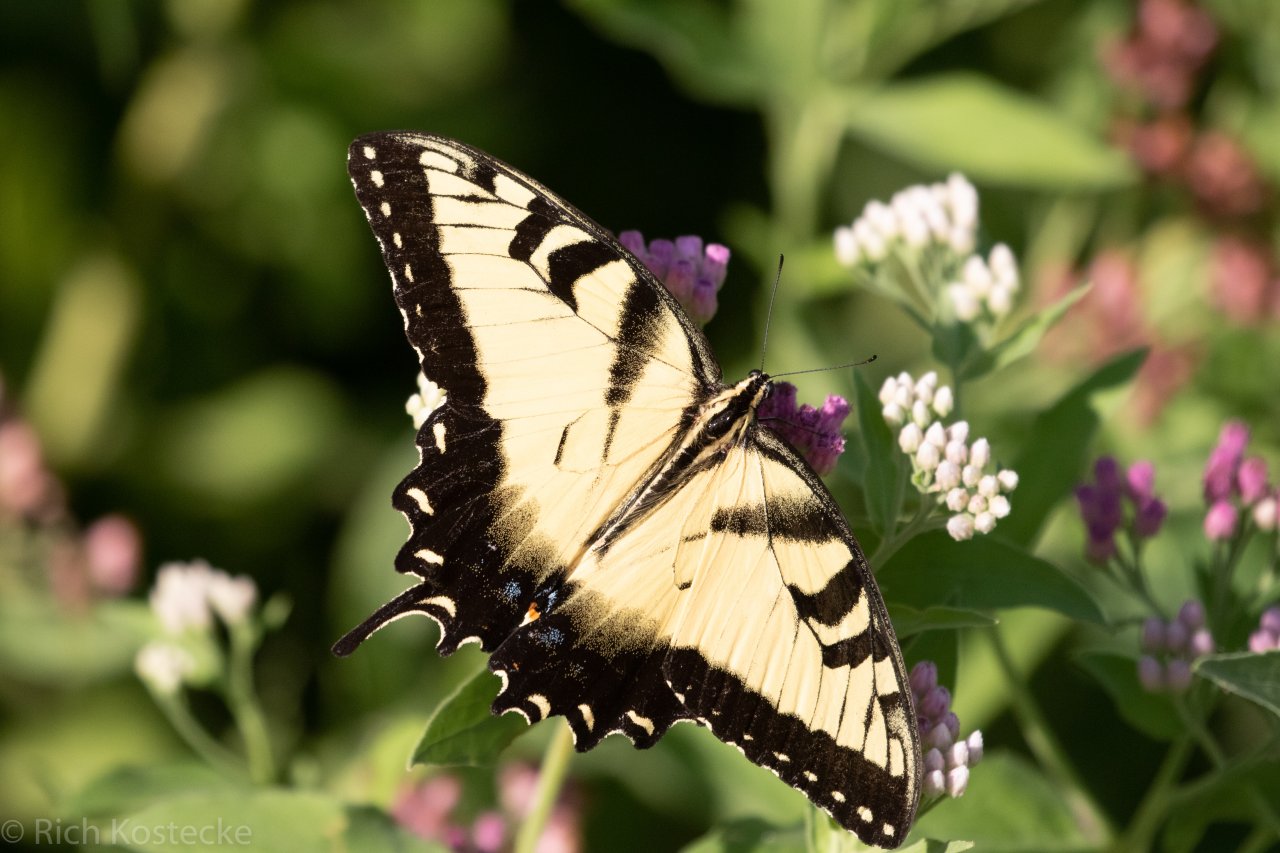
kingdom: Animalia
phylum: Arthropoda
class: Insecta
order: Lepidoptera
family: Papilionidae
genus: Pterourus
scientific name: Pterourus glaucus
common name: Eastern Tiger Swallowtail
